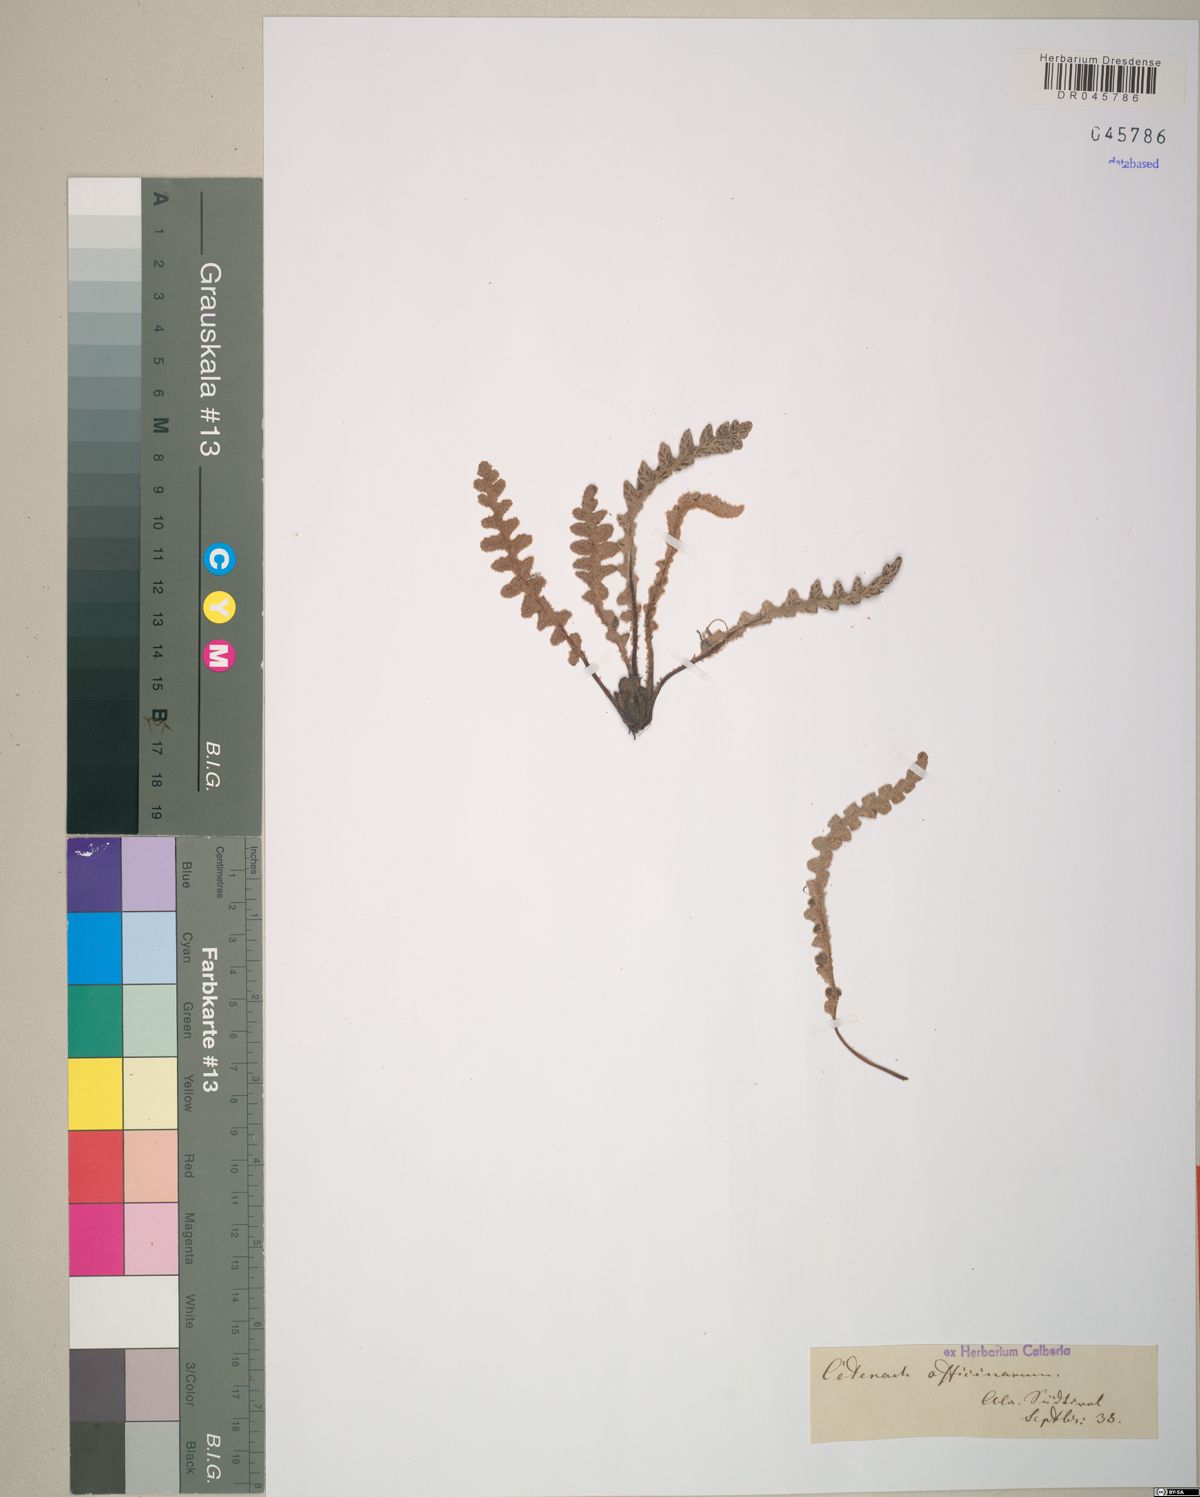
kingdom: Plantae
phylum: Tracheophyta
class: Polypodiopsida
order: Polypodiales
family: Aspleniaceae
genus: Asplenium
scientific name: Asplenium ceterach
